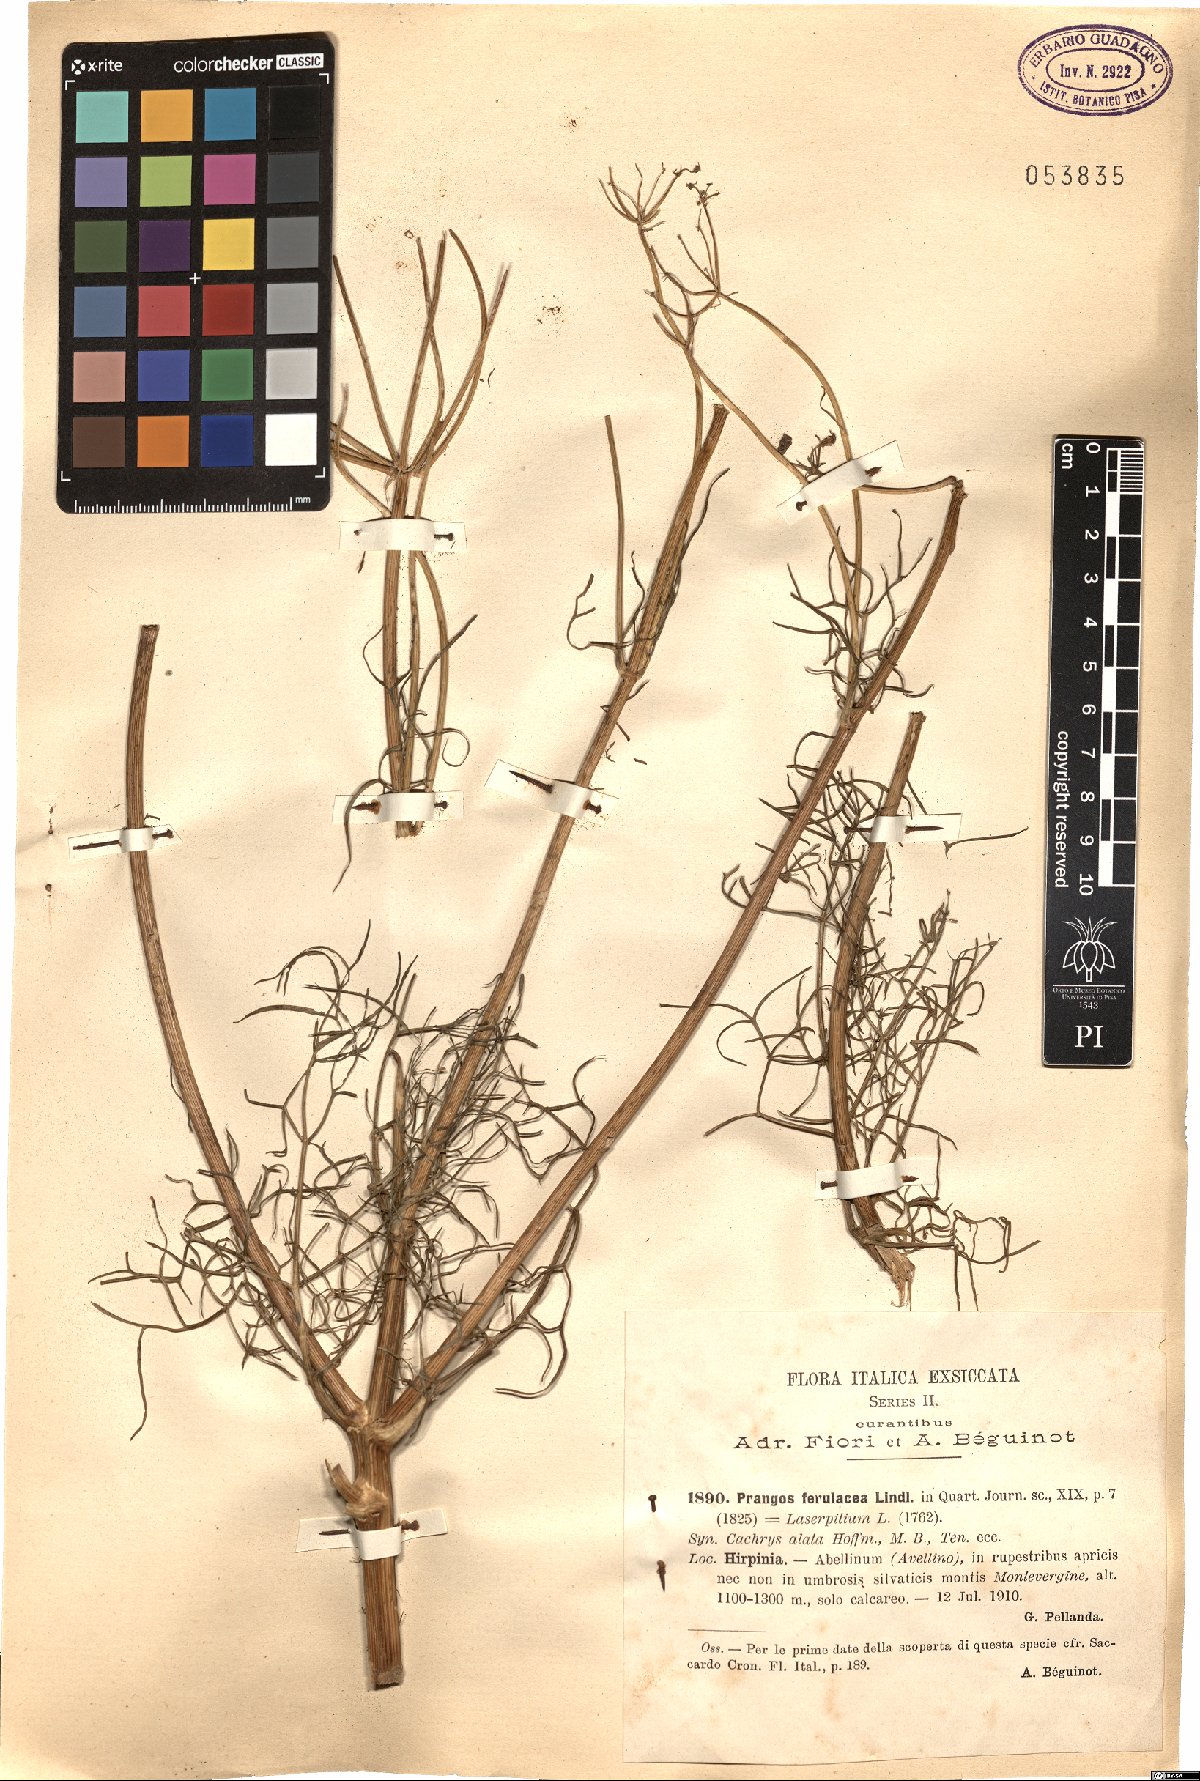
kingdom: Plantae
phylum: Tracheophyta
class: Magnoliopsida
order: Apiales
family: Apiaceae
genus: Prangos
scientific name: Prangos ferulacea
